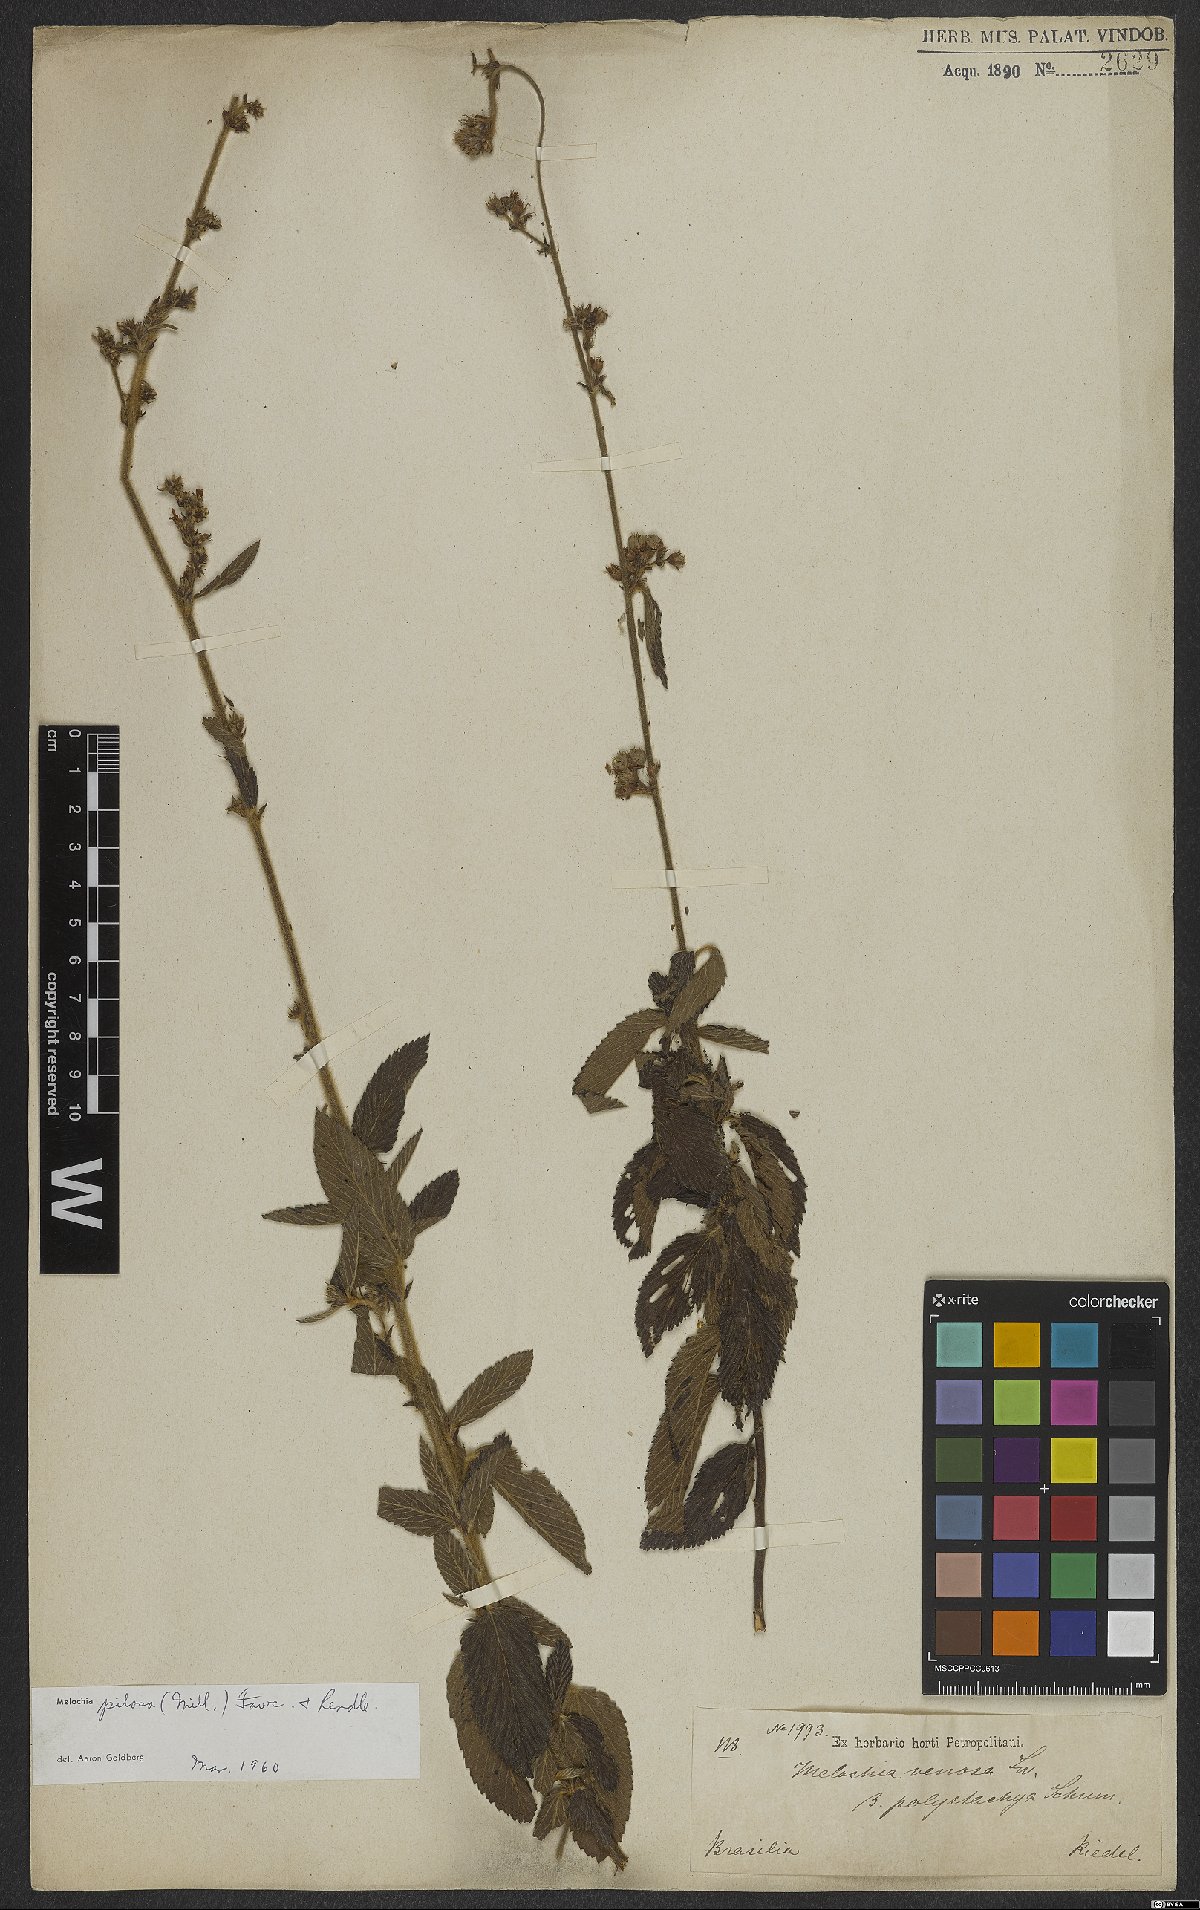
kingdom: Plantae
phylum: Tracheophyta
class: Magnoliopsida
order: Malvales
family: Malvaceae
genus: Melochia
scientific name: Melochia pilosa
